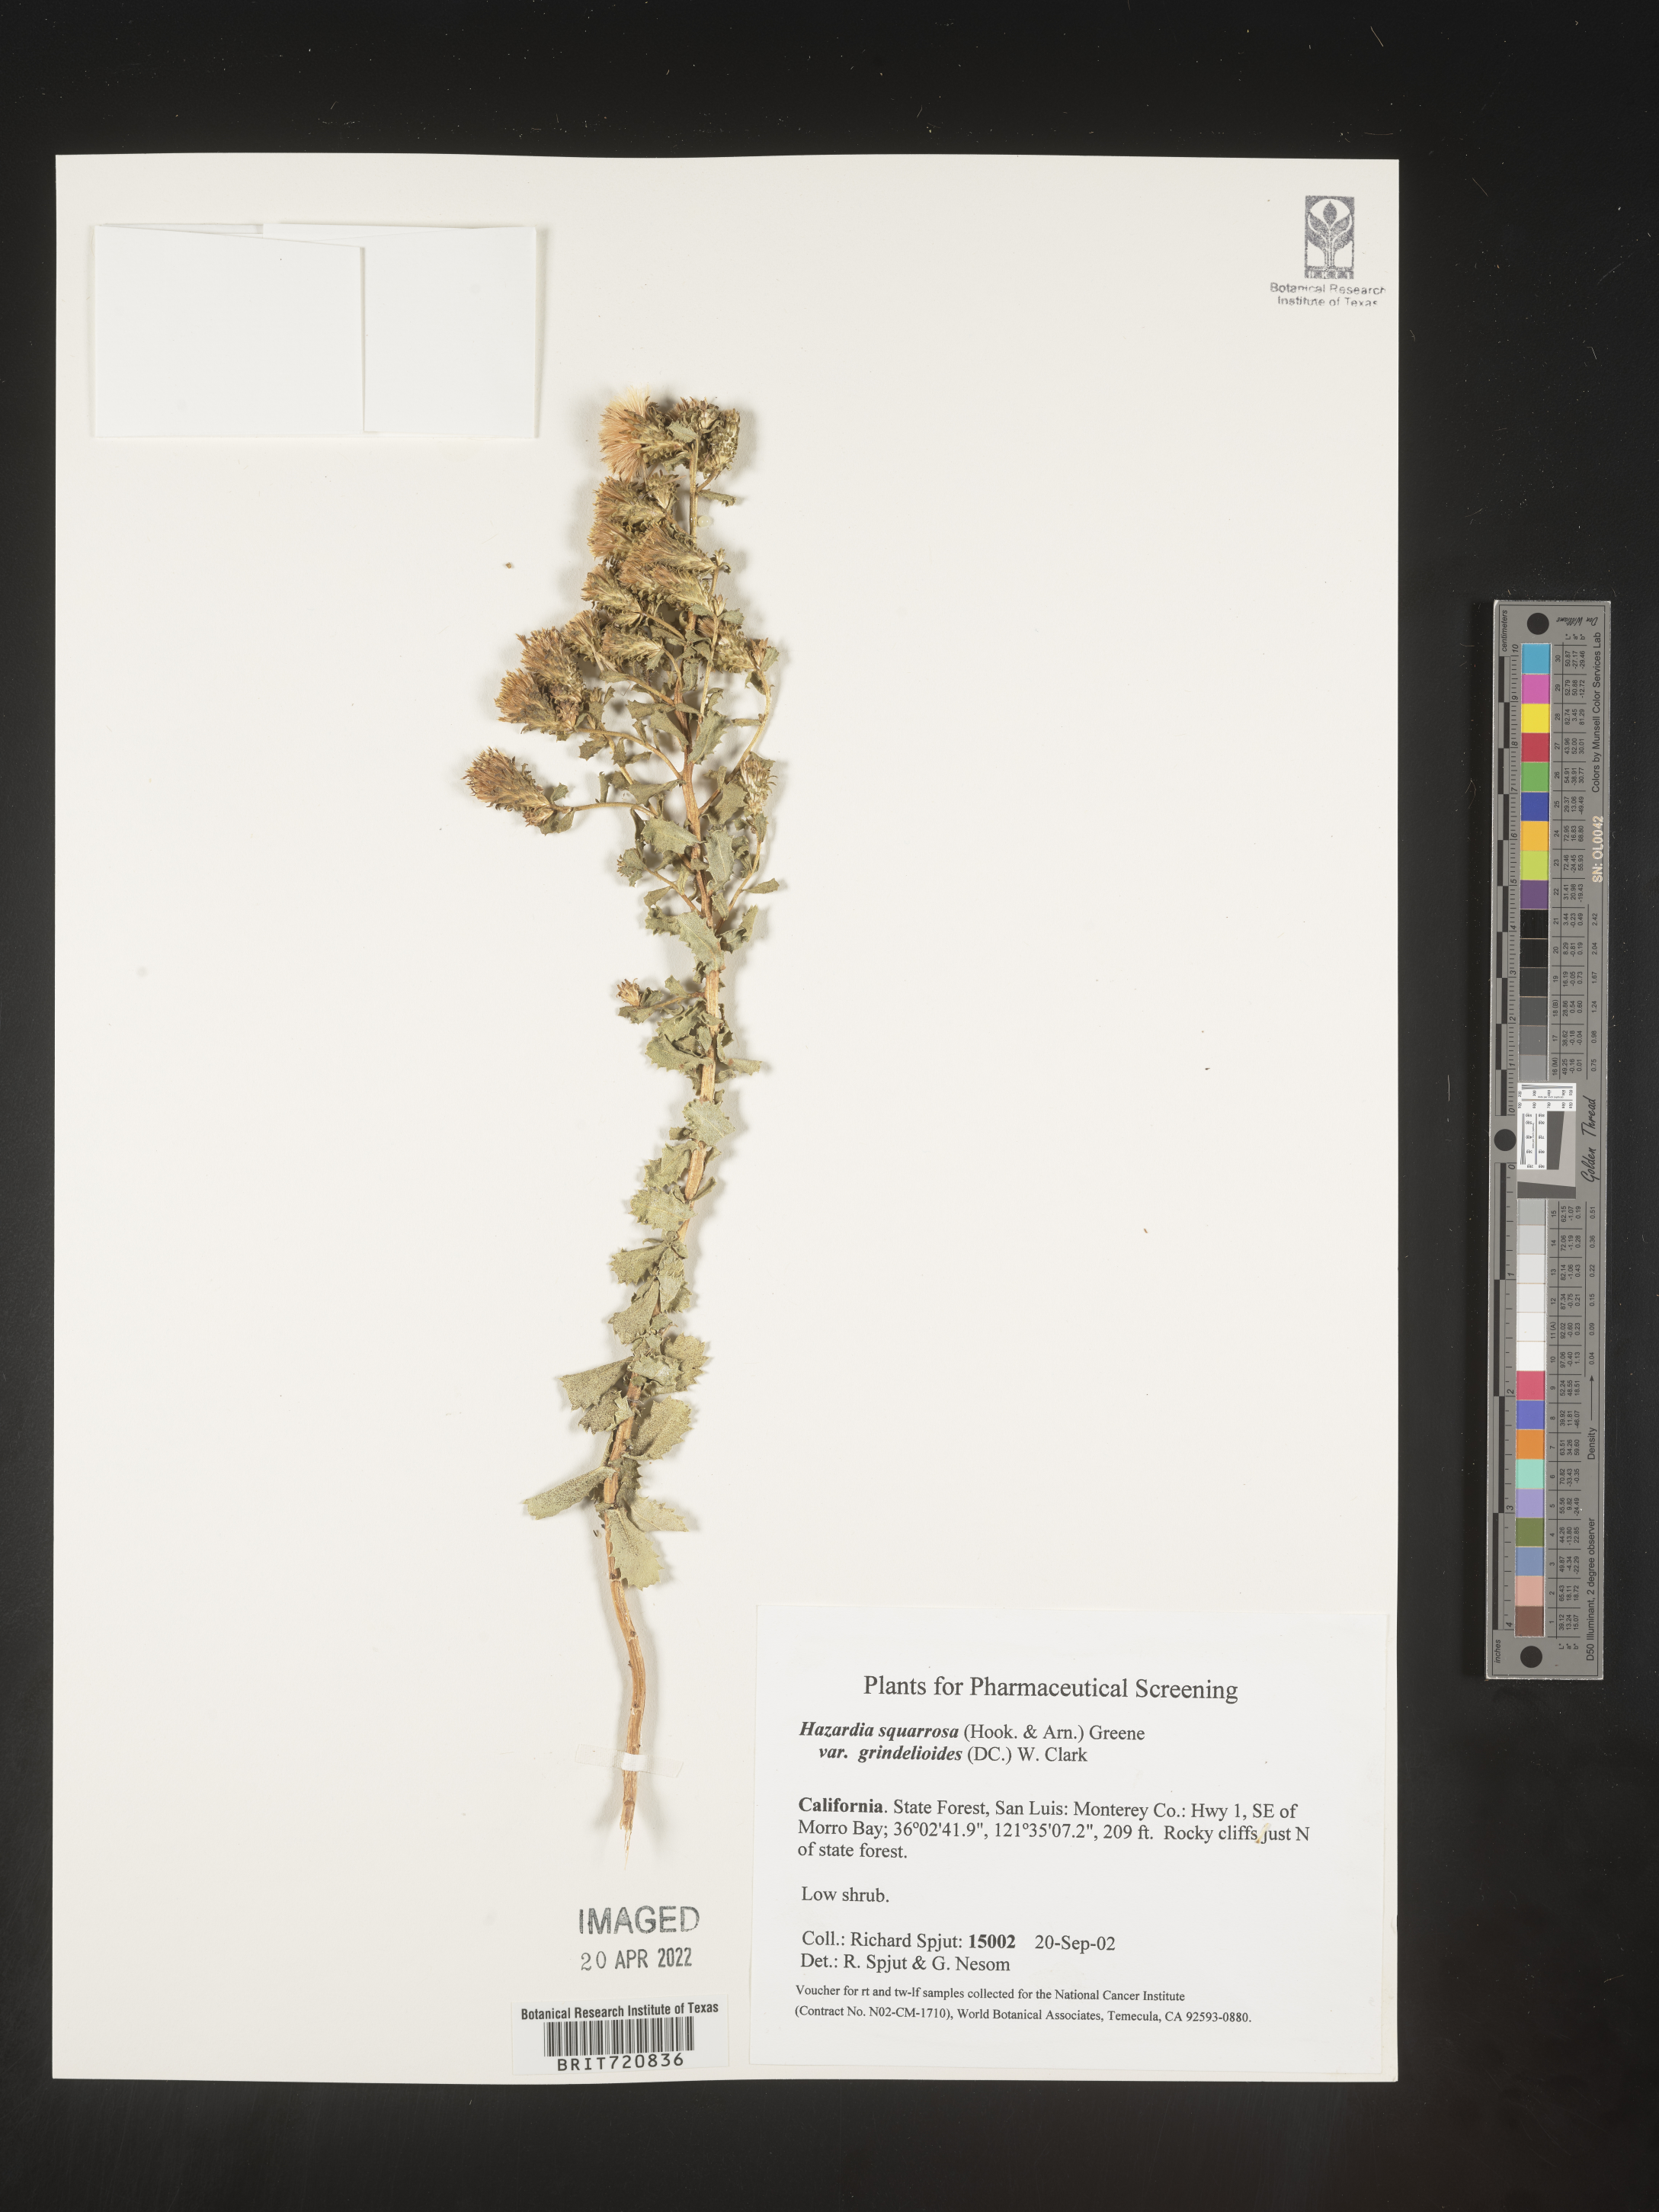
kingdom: Plantae
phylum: Tracheophyta
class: Magnoliopsida
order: Asterales
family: Asteraceae
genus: Hazardia
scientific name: Hazardia squarrosa
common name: Saw-tooth goldenbush
